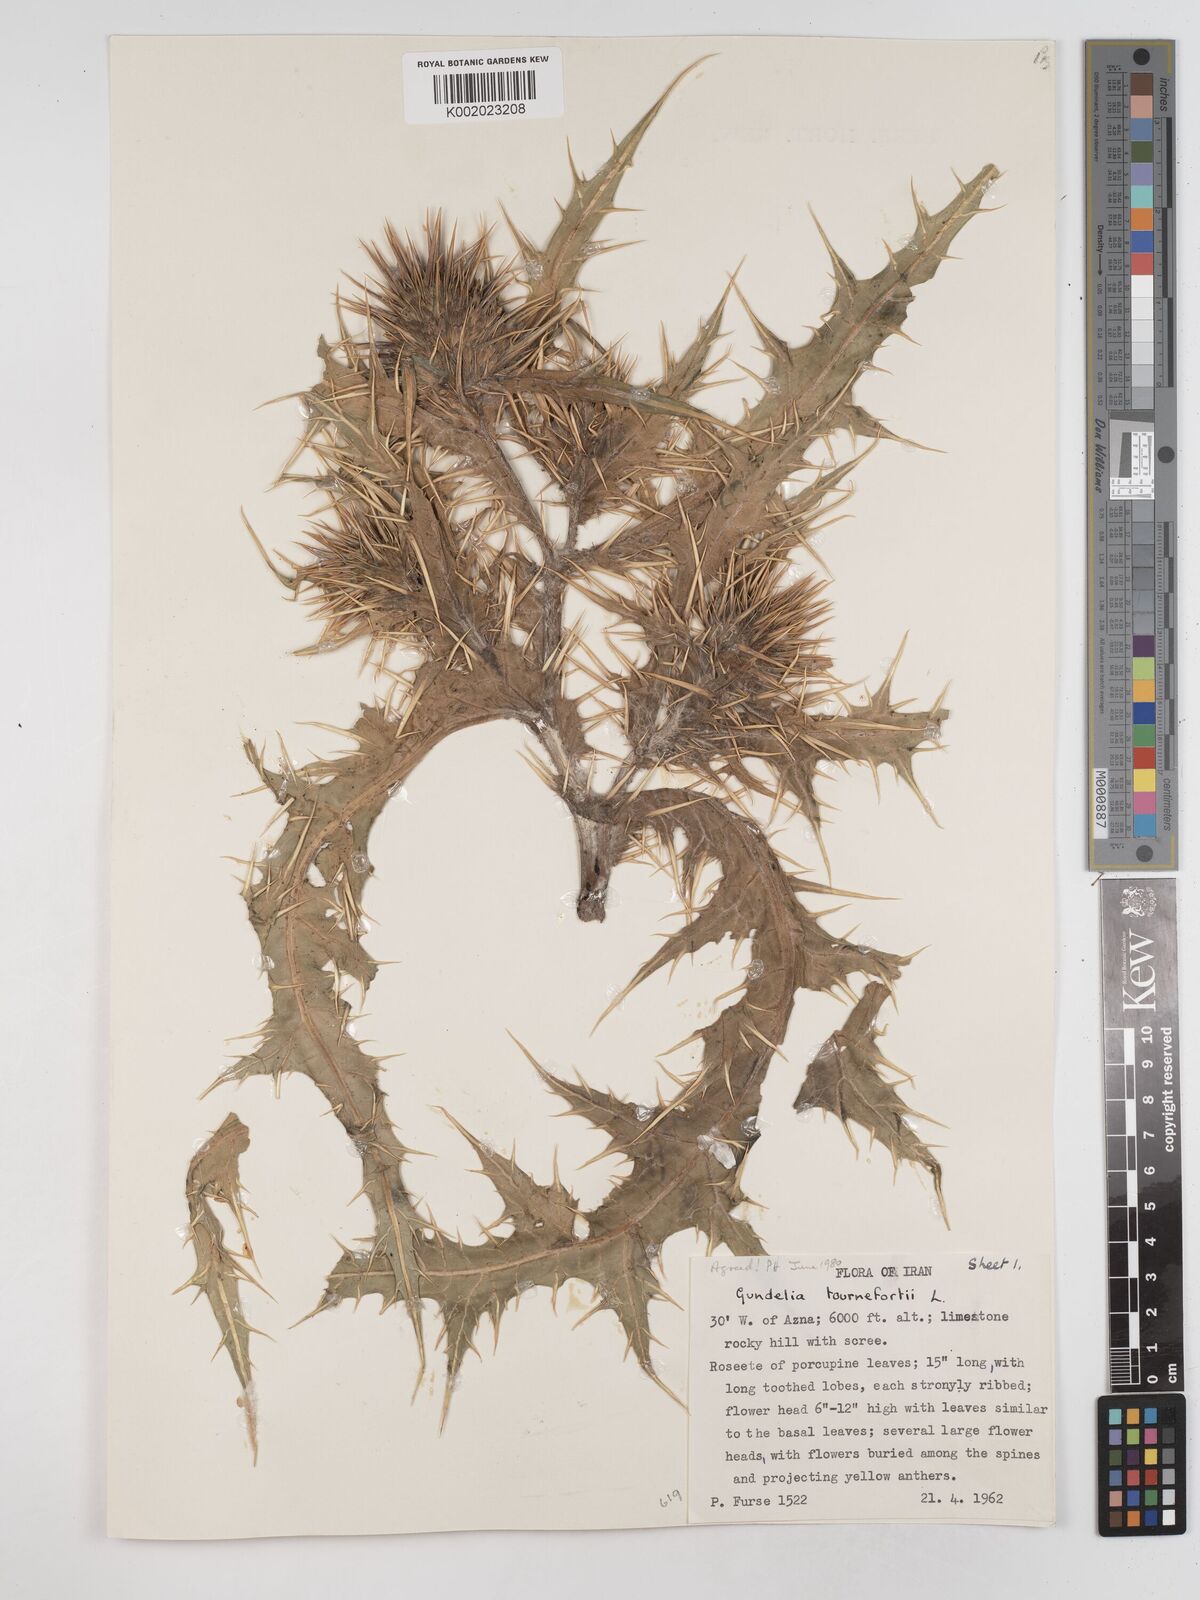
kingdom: Plantae
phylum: Tracheophyta
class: Magnoliopsida
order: Asterales
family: Asteraceae
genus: Gundelia
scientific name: Gundelia tournefortii
